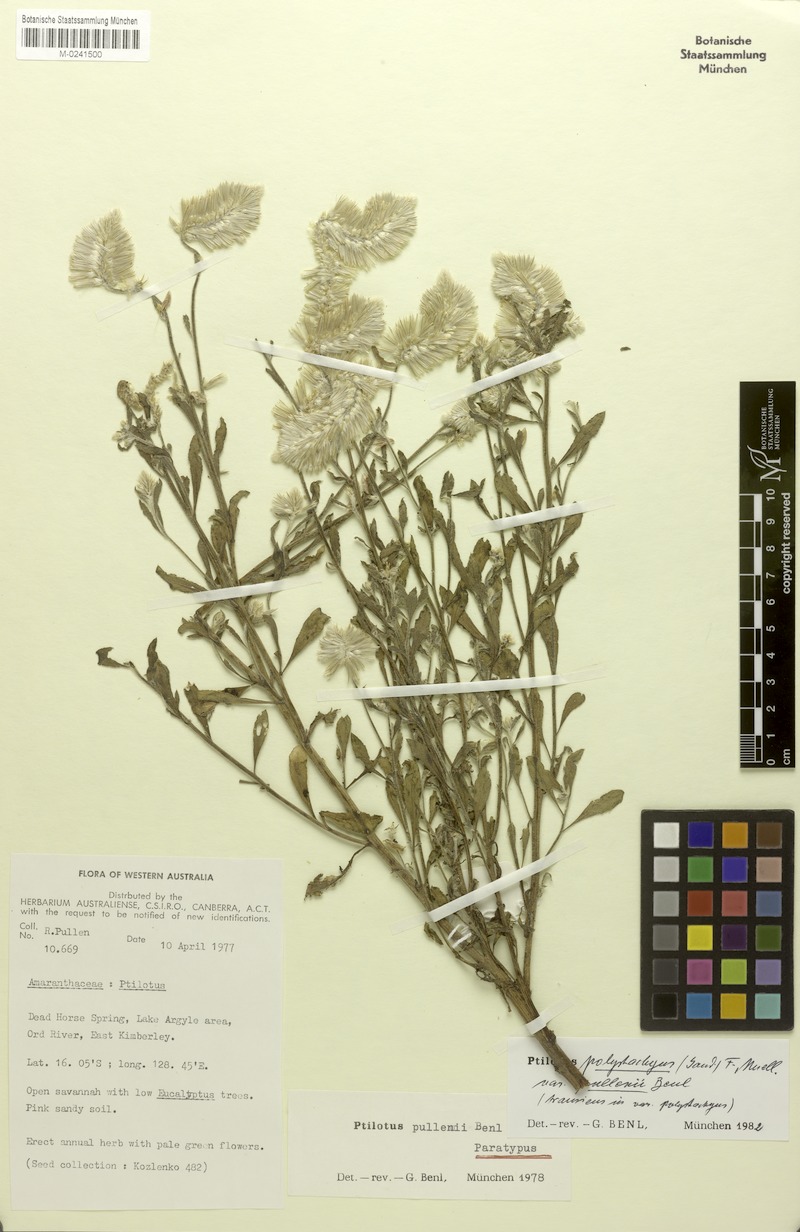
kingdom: Plantae
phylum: Tracheophyta
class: Magnoliopsida
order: Caryophyllales
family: Amaranthaceae
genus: Ptilotus
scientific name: Ptilotus giganteus
